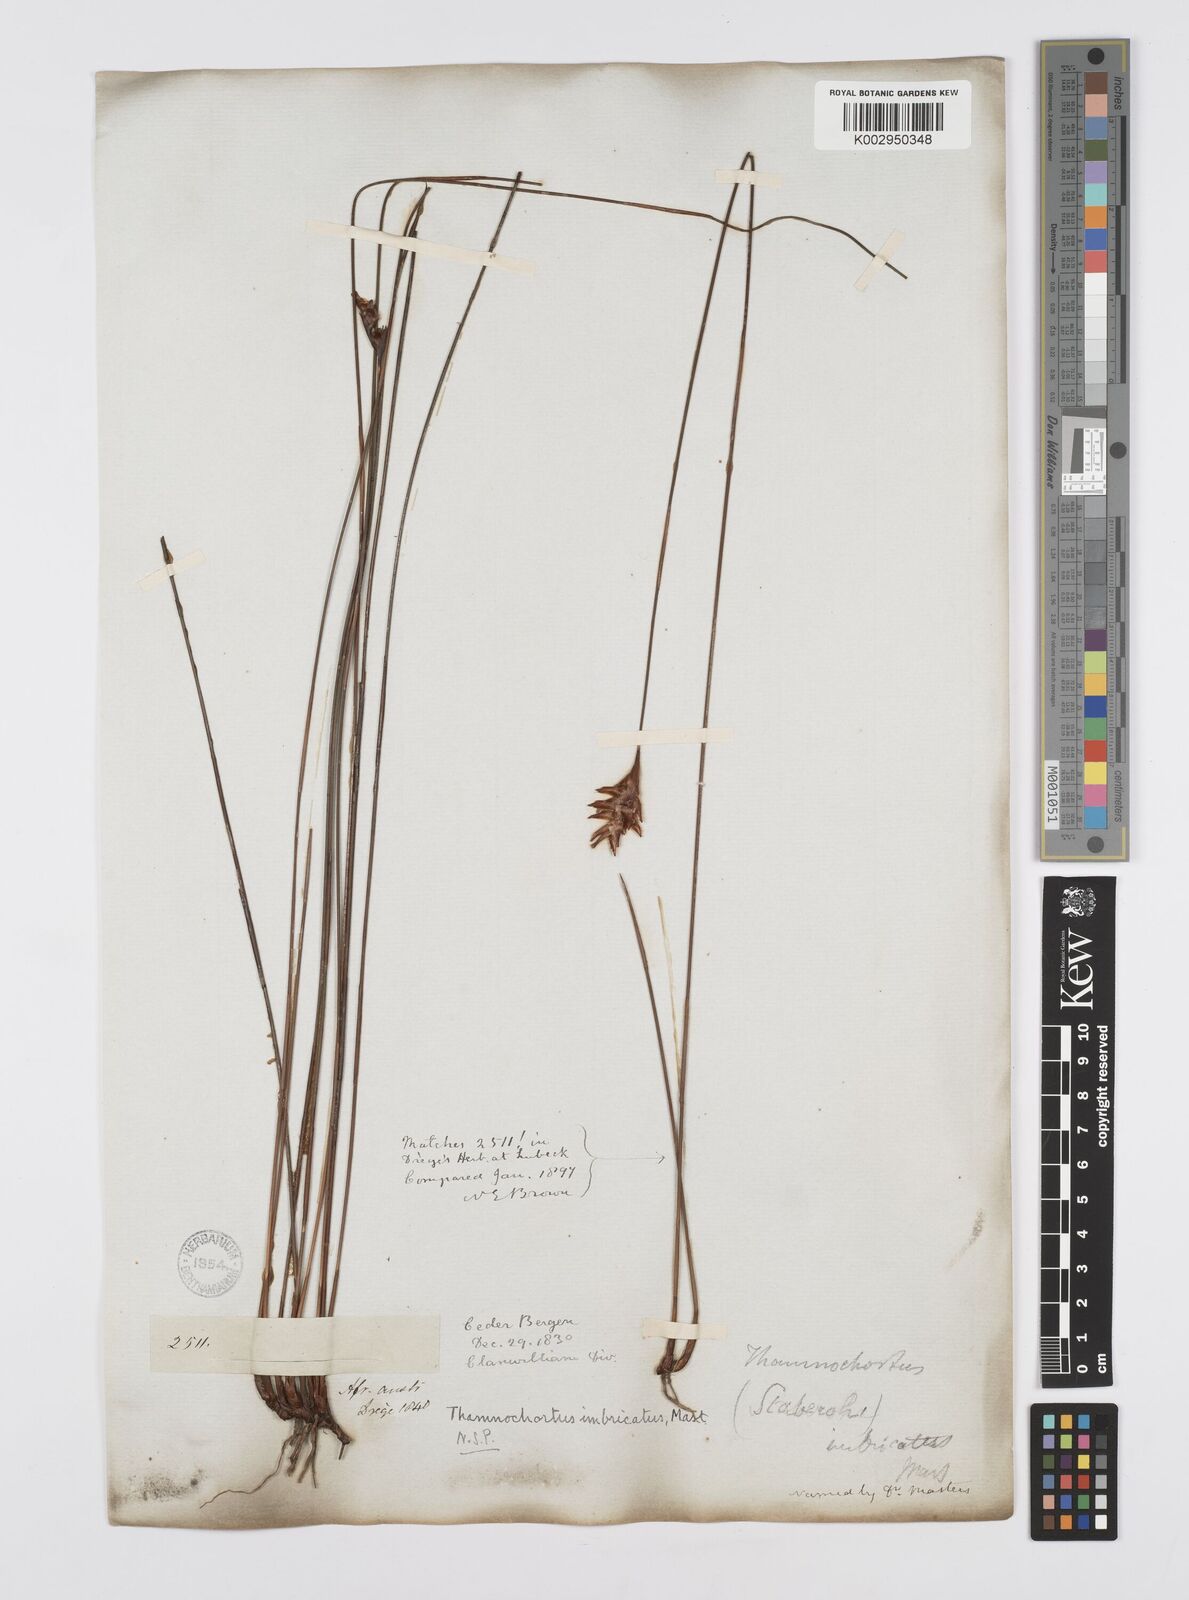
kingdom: Plantae
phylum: Tracheophyta
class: Liliopsida
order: Poales
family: Restionaceae
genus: Staberoha
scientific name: Staberoha distachyos
